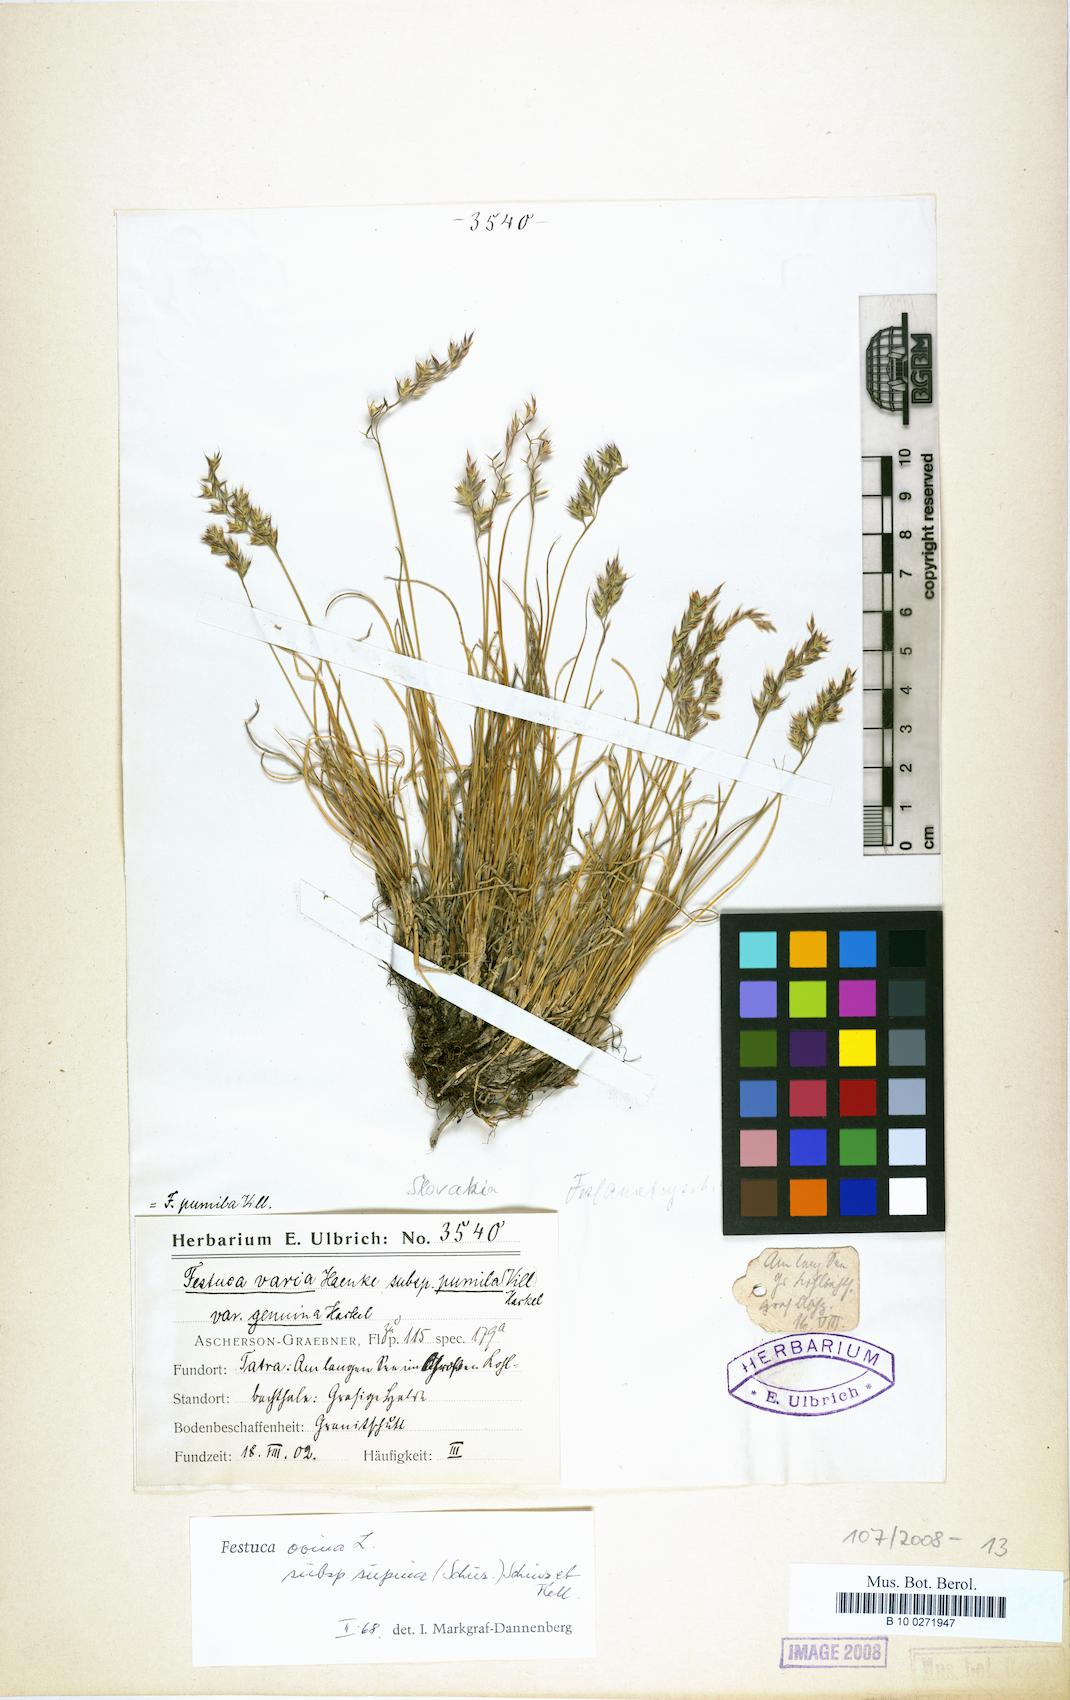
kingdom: Plantae
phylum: Tracheophyta
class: Liliopsida
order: Poales
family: Poaceae
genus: Festuca
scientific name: Festuca airoides
